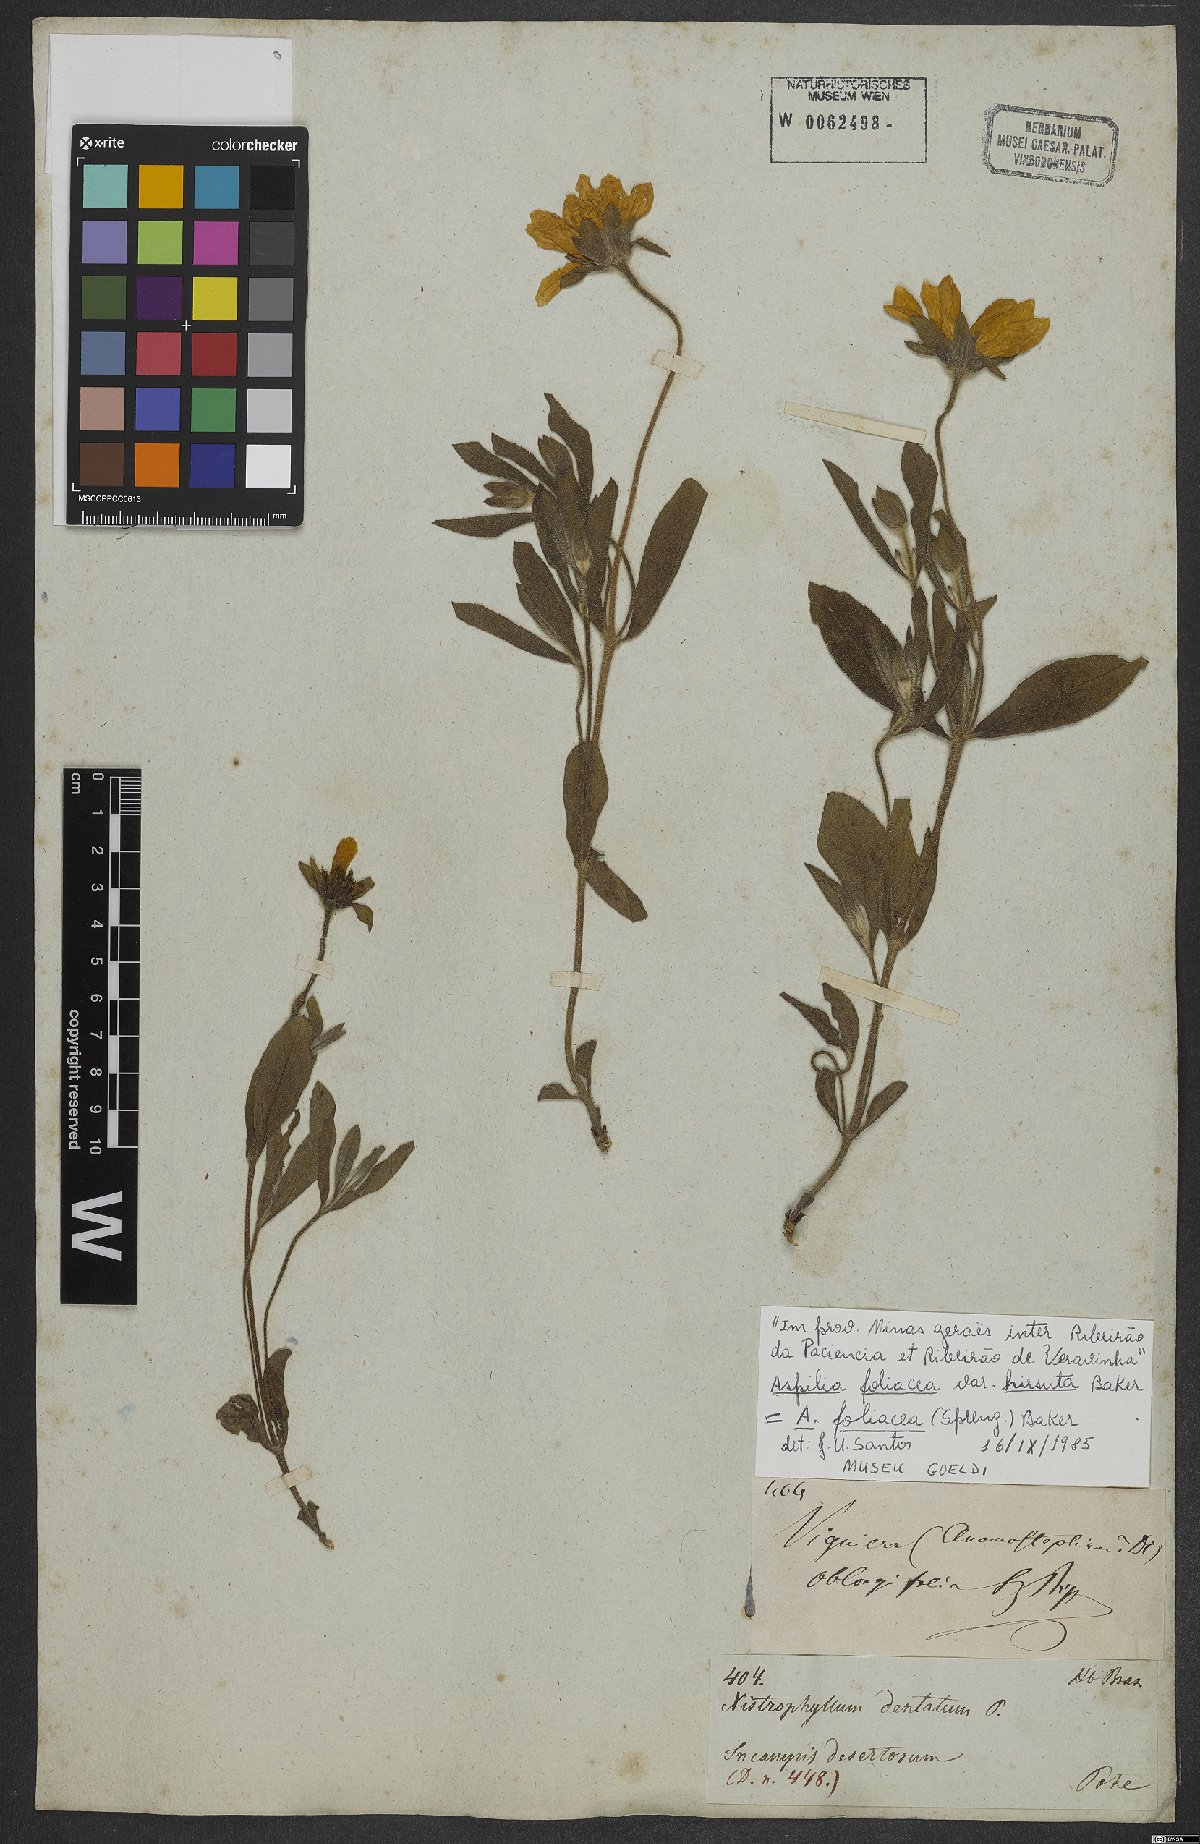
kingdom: Plantae
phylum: Tracheophyta
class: Magnoliopsida
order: Asterales
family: Asteraceae
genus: Aspilia
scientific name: Aspilia foliosa
